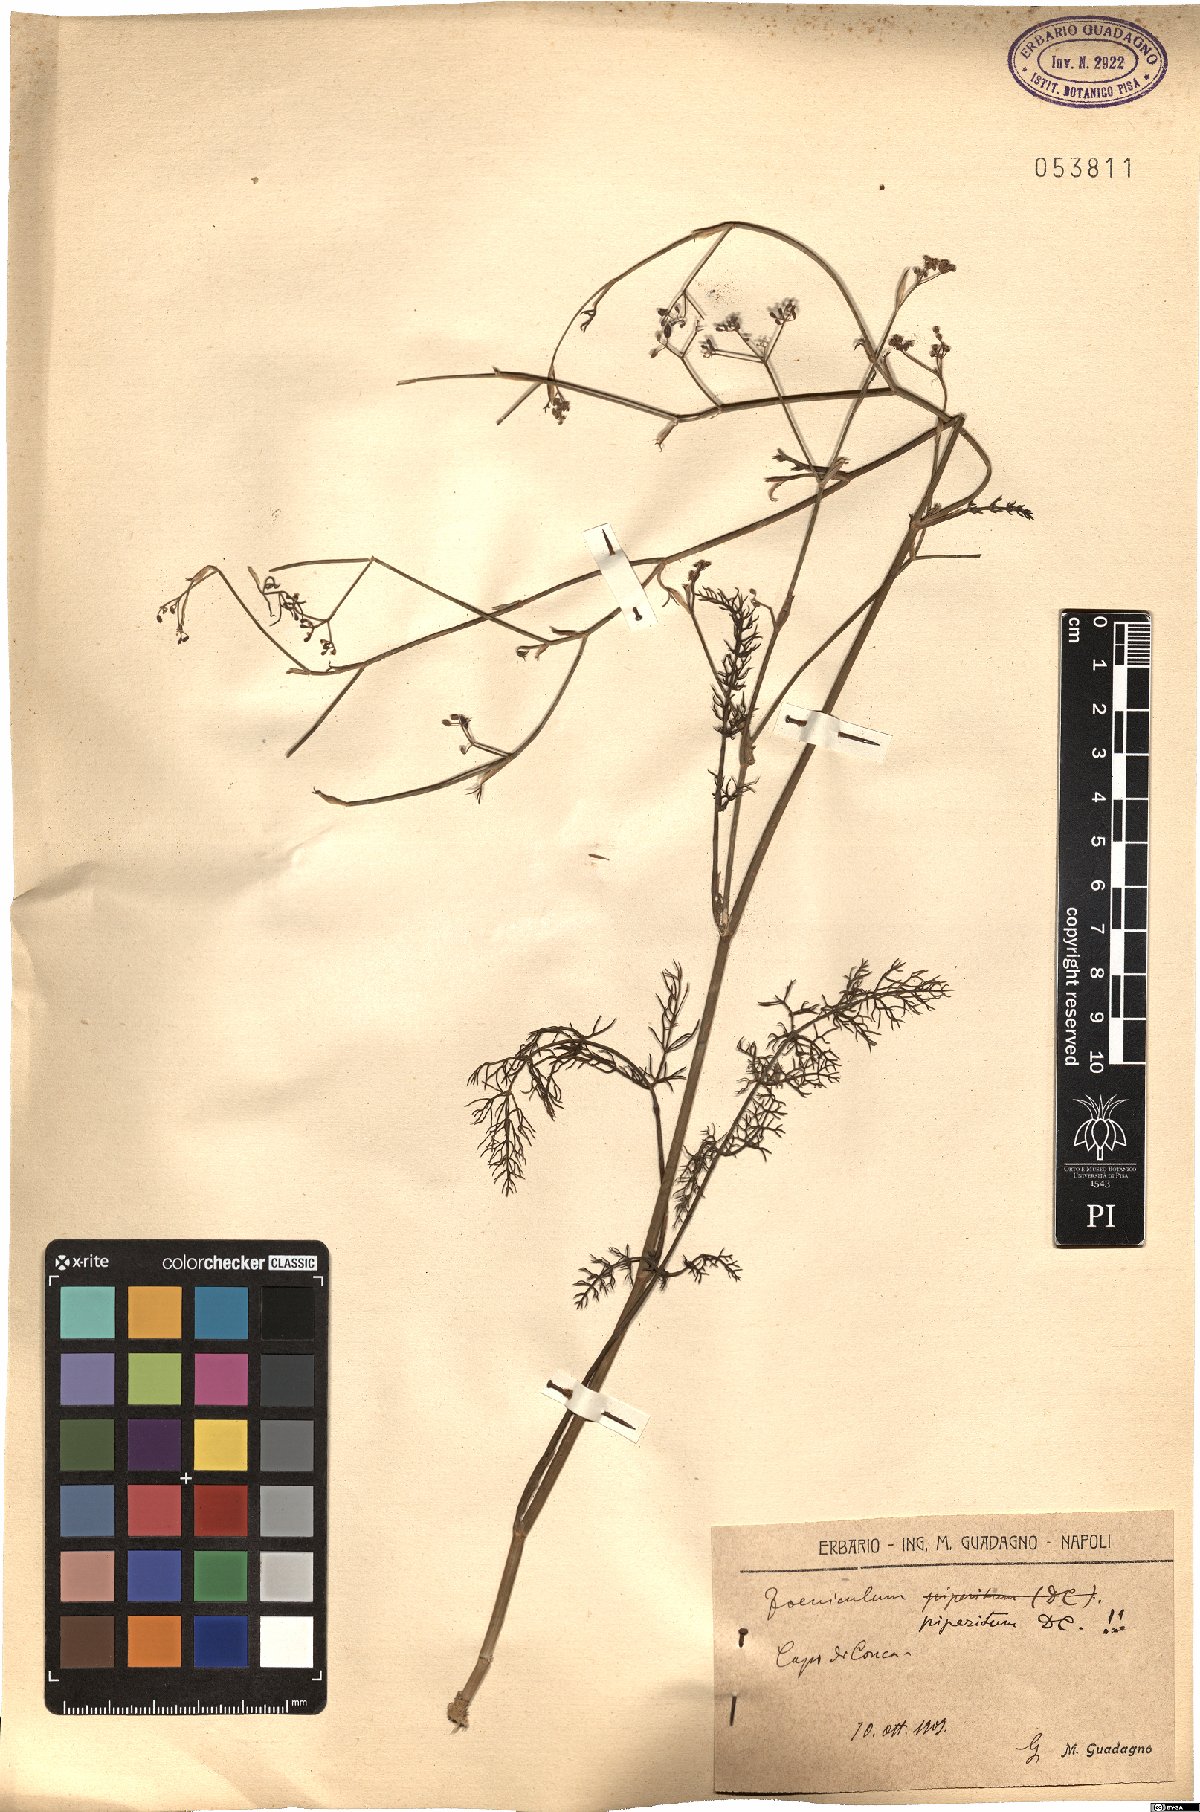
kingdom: Plantae
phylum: Tracheophyta
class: Magnoliopsida
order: Apiales
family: Apiaceae
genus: Foeniculum
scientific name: Foeniculum vulgare
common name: Fennel
